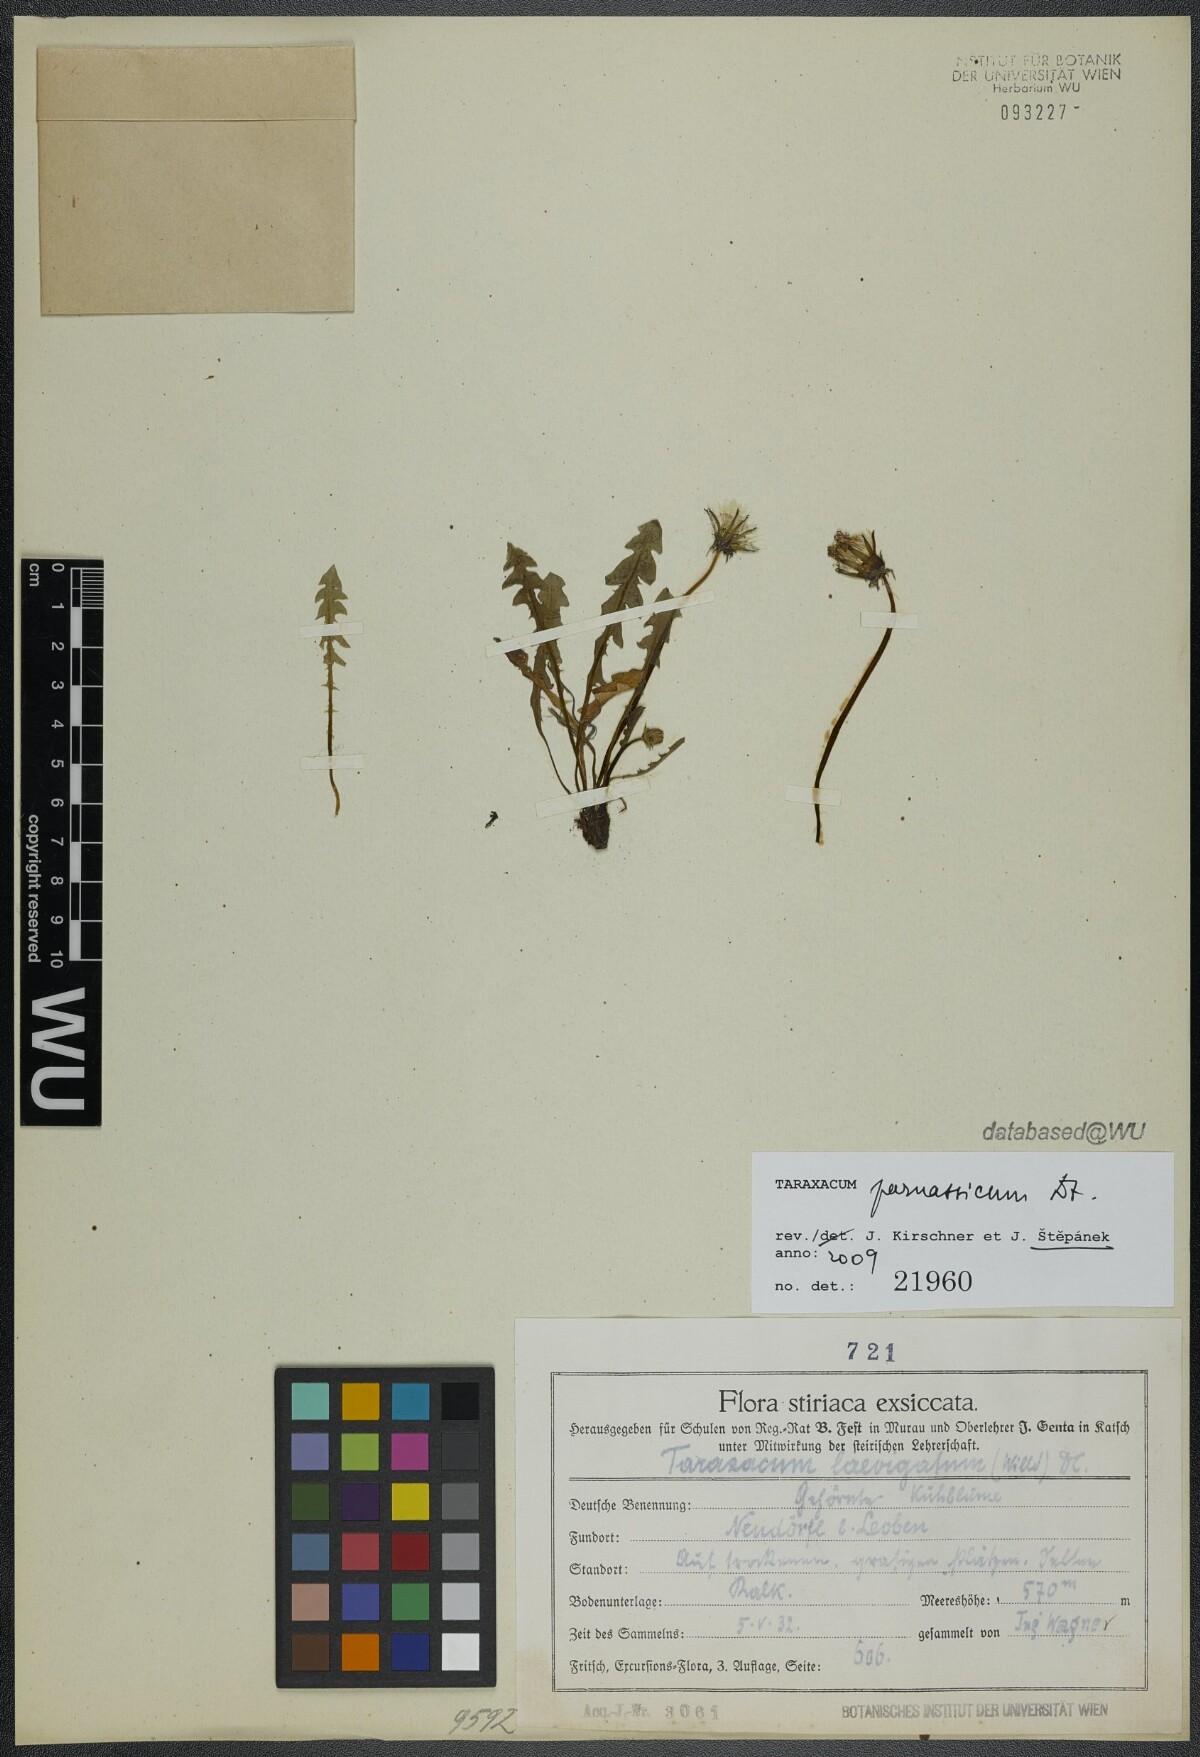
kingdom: Plantae
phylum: Tracheophyta
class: Magnoliopsida
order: Asterales
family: Asteraceae
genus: Taraxacum
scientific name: Taraxacum parnassicum
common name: Parnassus dandelion
